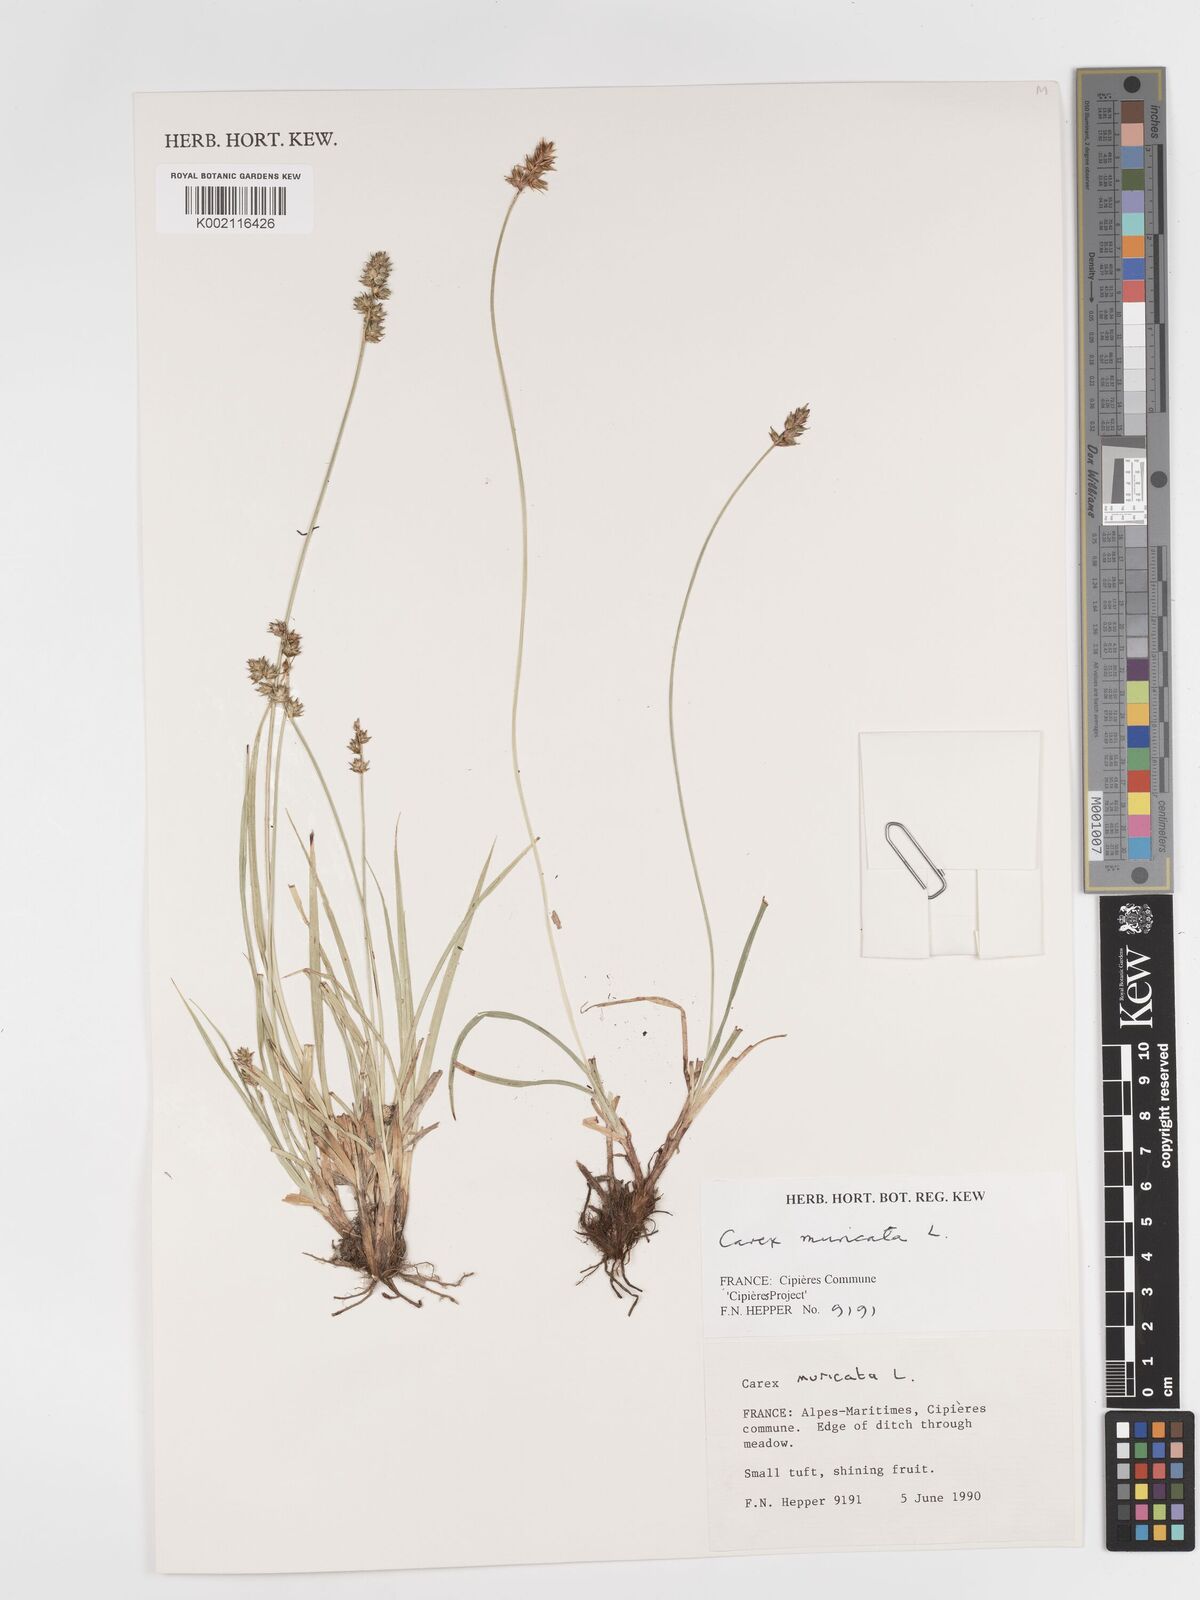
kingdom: Plantae
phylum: Tracheophyta
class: Liliopsida
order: Poales
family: Cyperaceae
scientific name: Cyperaceae
